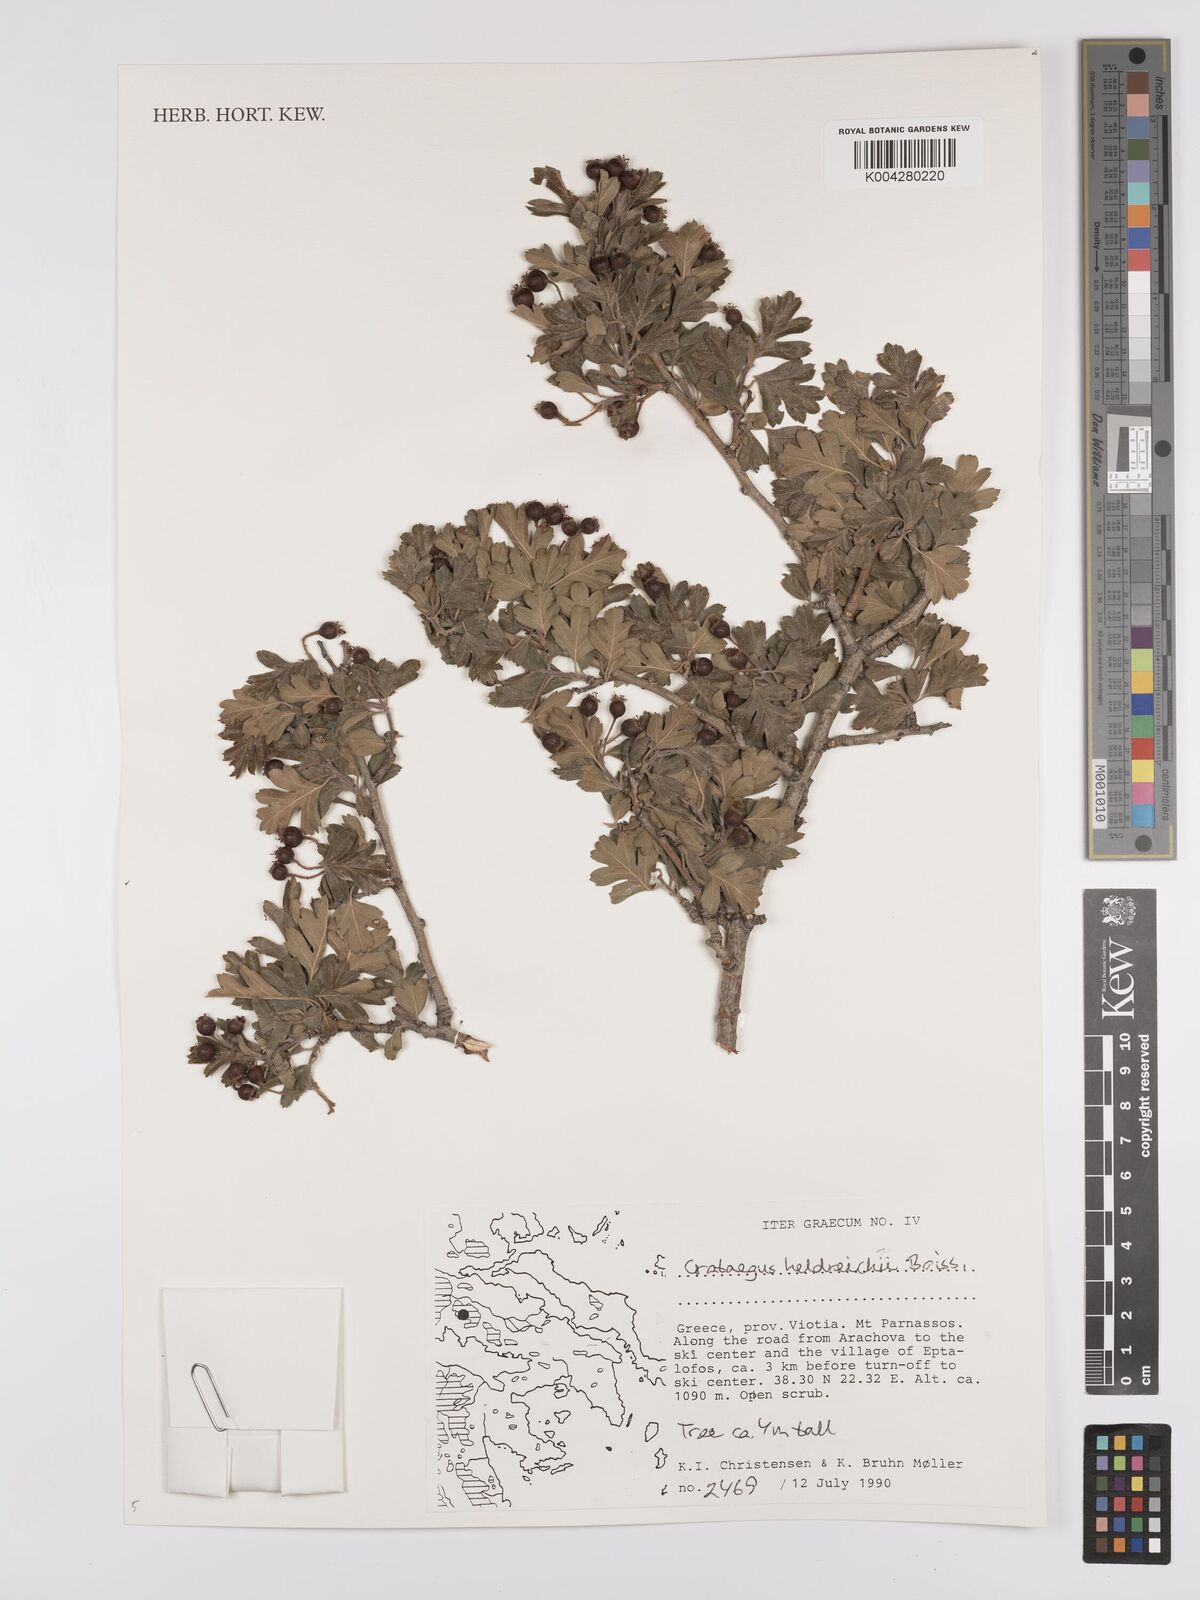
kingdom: Plantae
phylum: Tracheophyta
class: Magnoliopsida
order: Rosales
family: Rosaceae
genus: Crataegus
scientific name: Crataegus heldreichii
